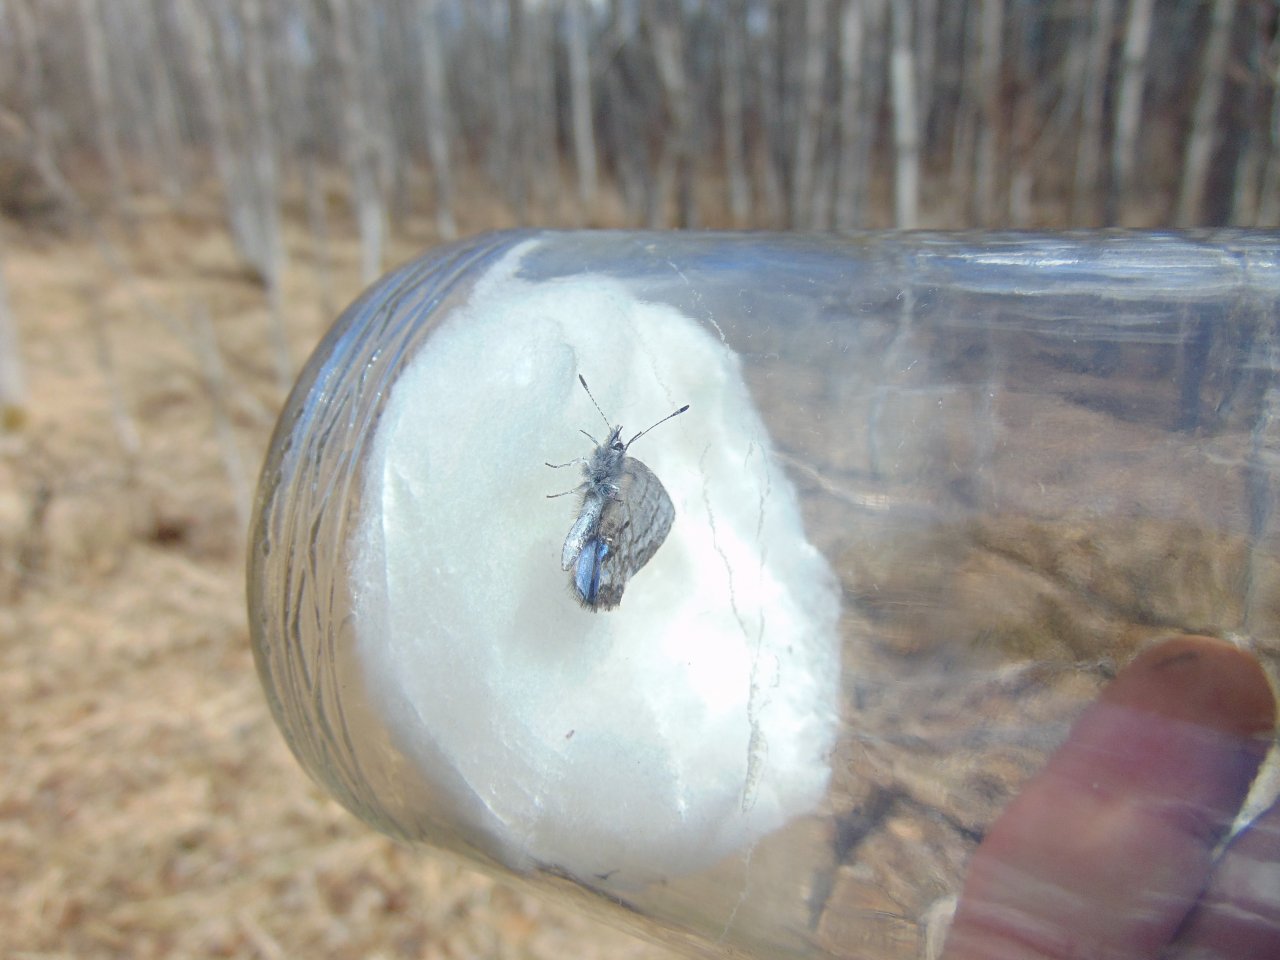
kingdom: Animalia
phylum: Arthropoda
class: Insecta
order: Lepidoptera
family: Lycaenidae
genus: Celastrina
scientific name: Celastrina lucia
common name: Northern Spring Azure
